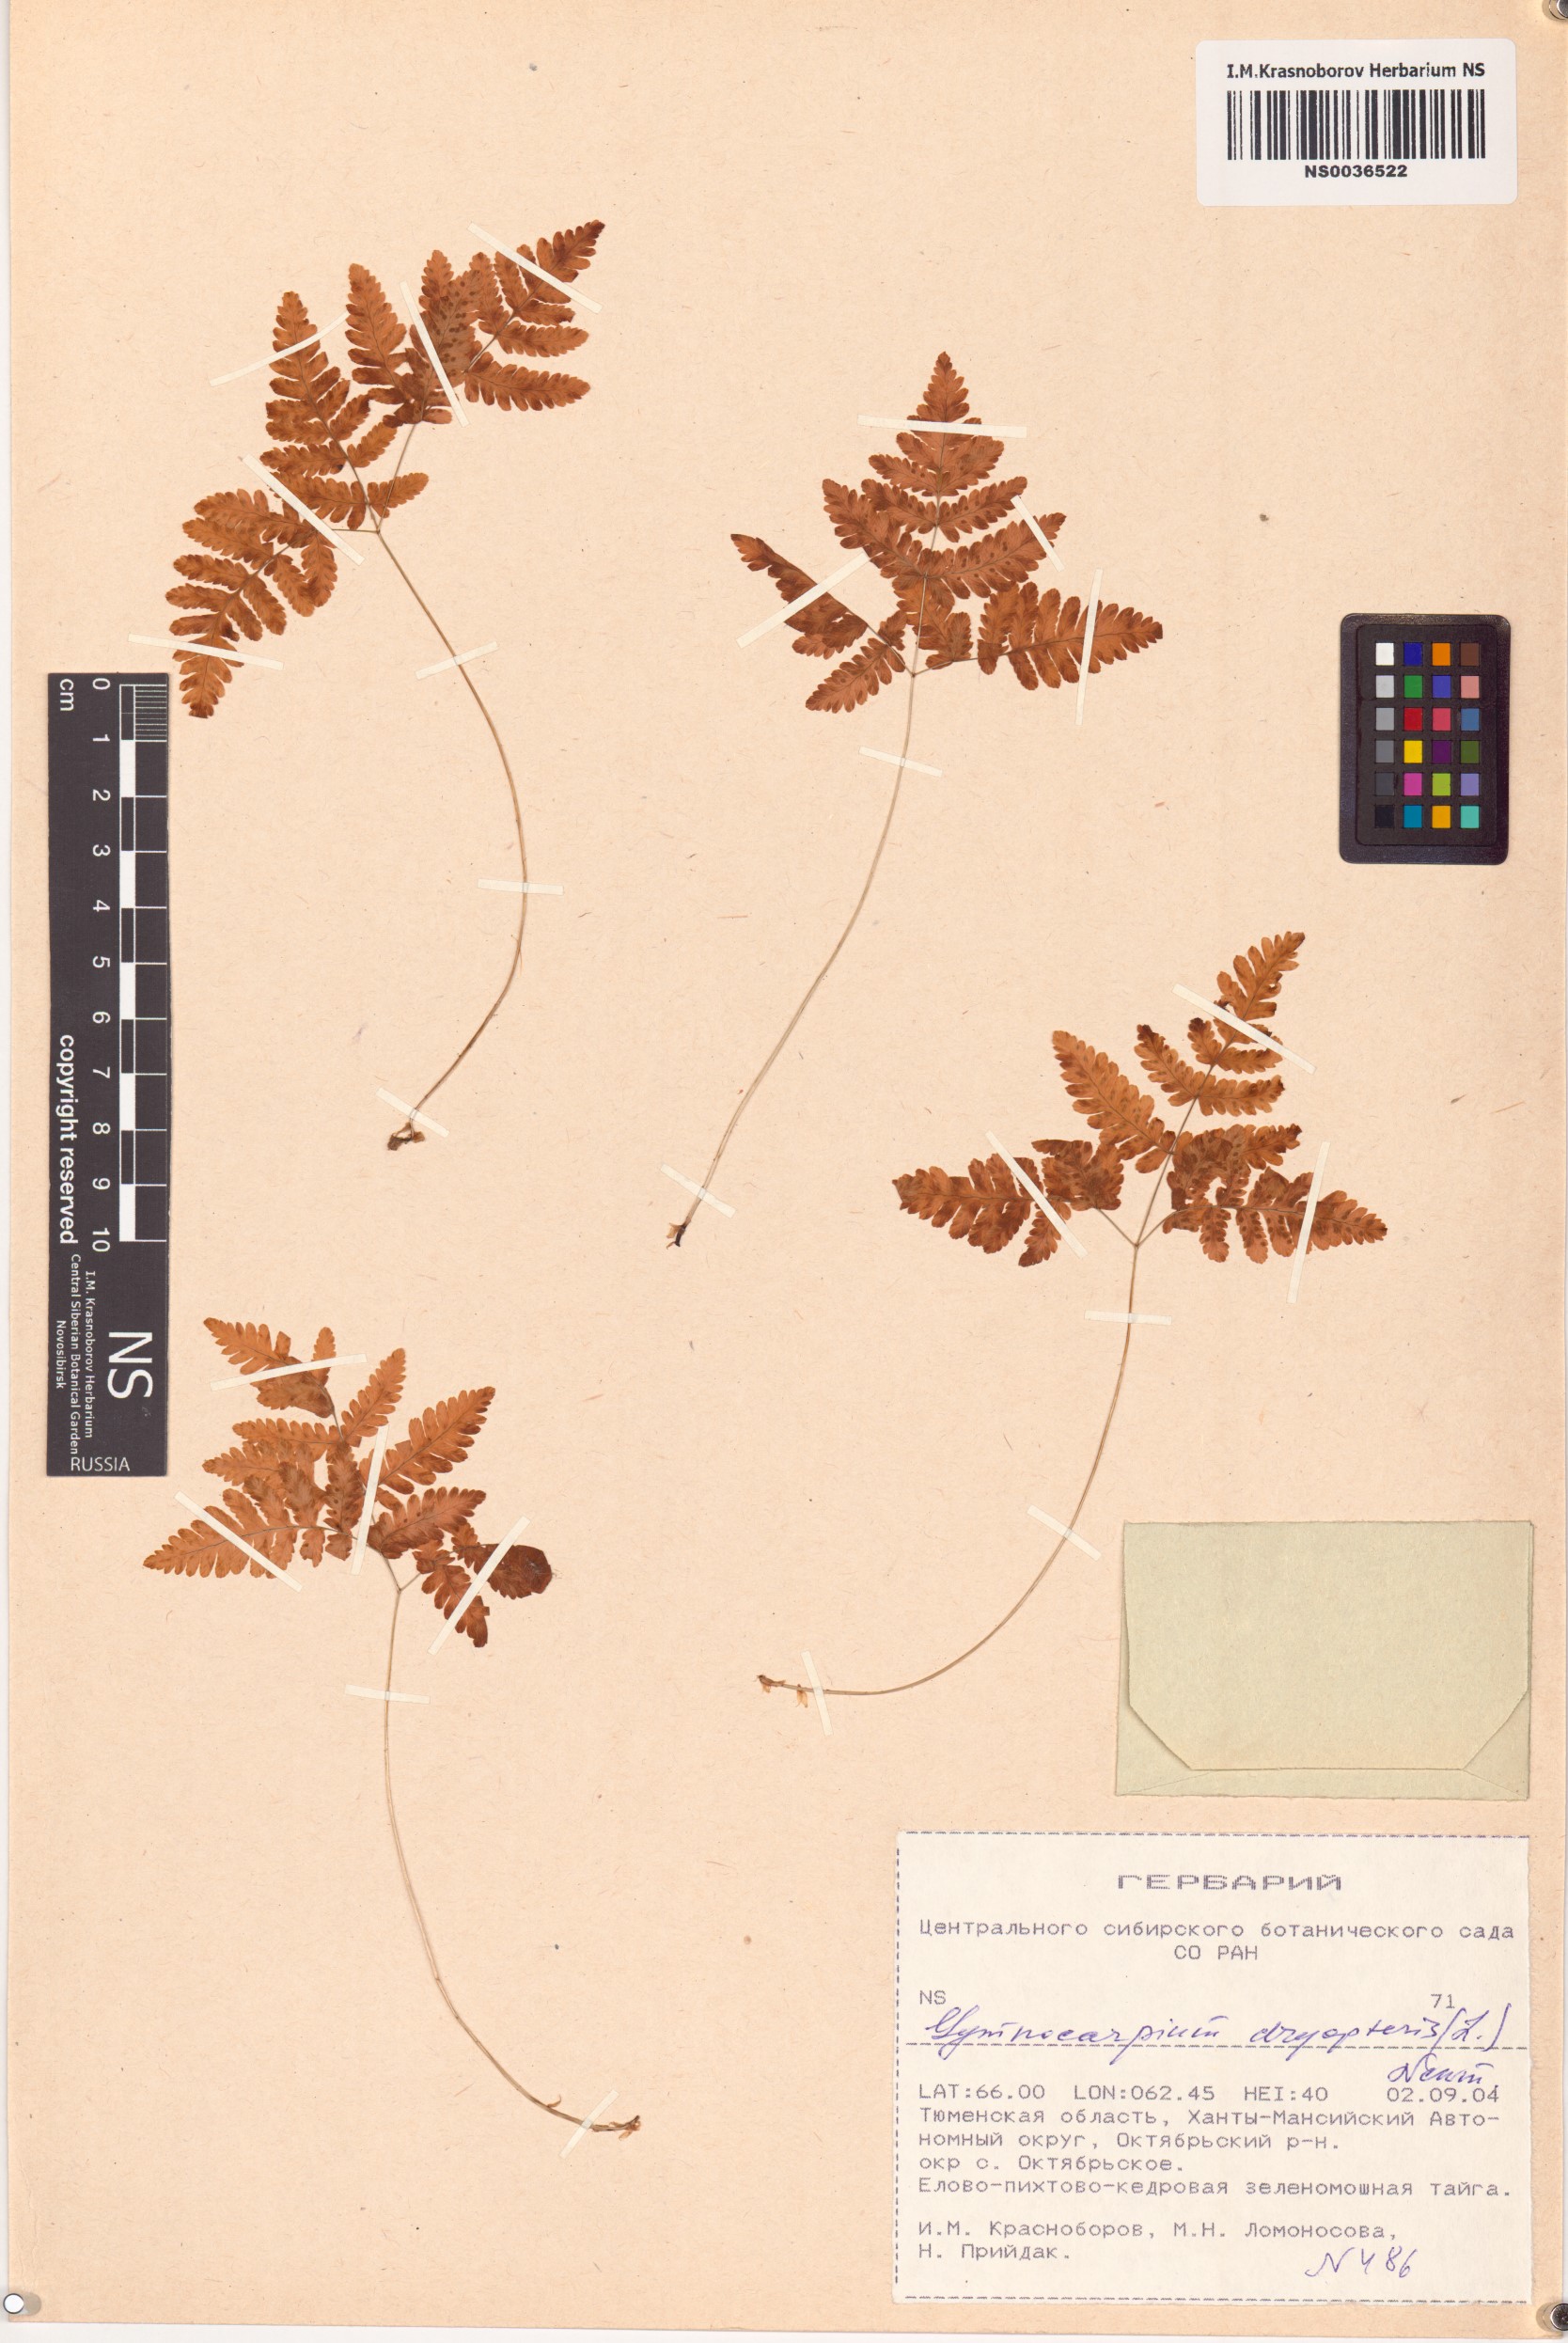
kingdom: Plantae
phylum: Tracheophyta
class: Polypodiopsida
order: Polypodiales
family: Cystopteridaceae
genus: Gymnocarpium
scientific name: Gymnocarpium dryopteris
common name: Oak fern
